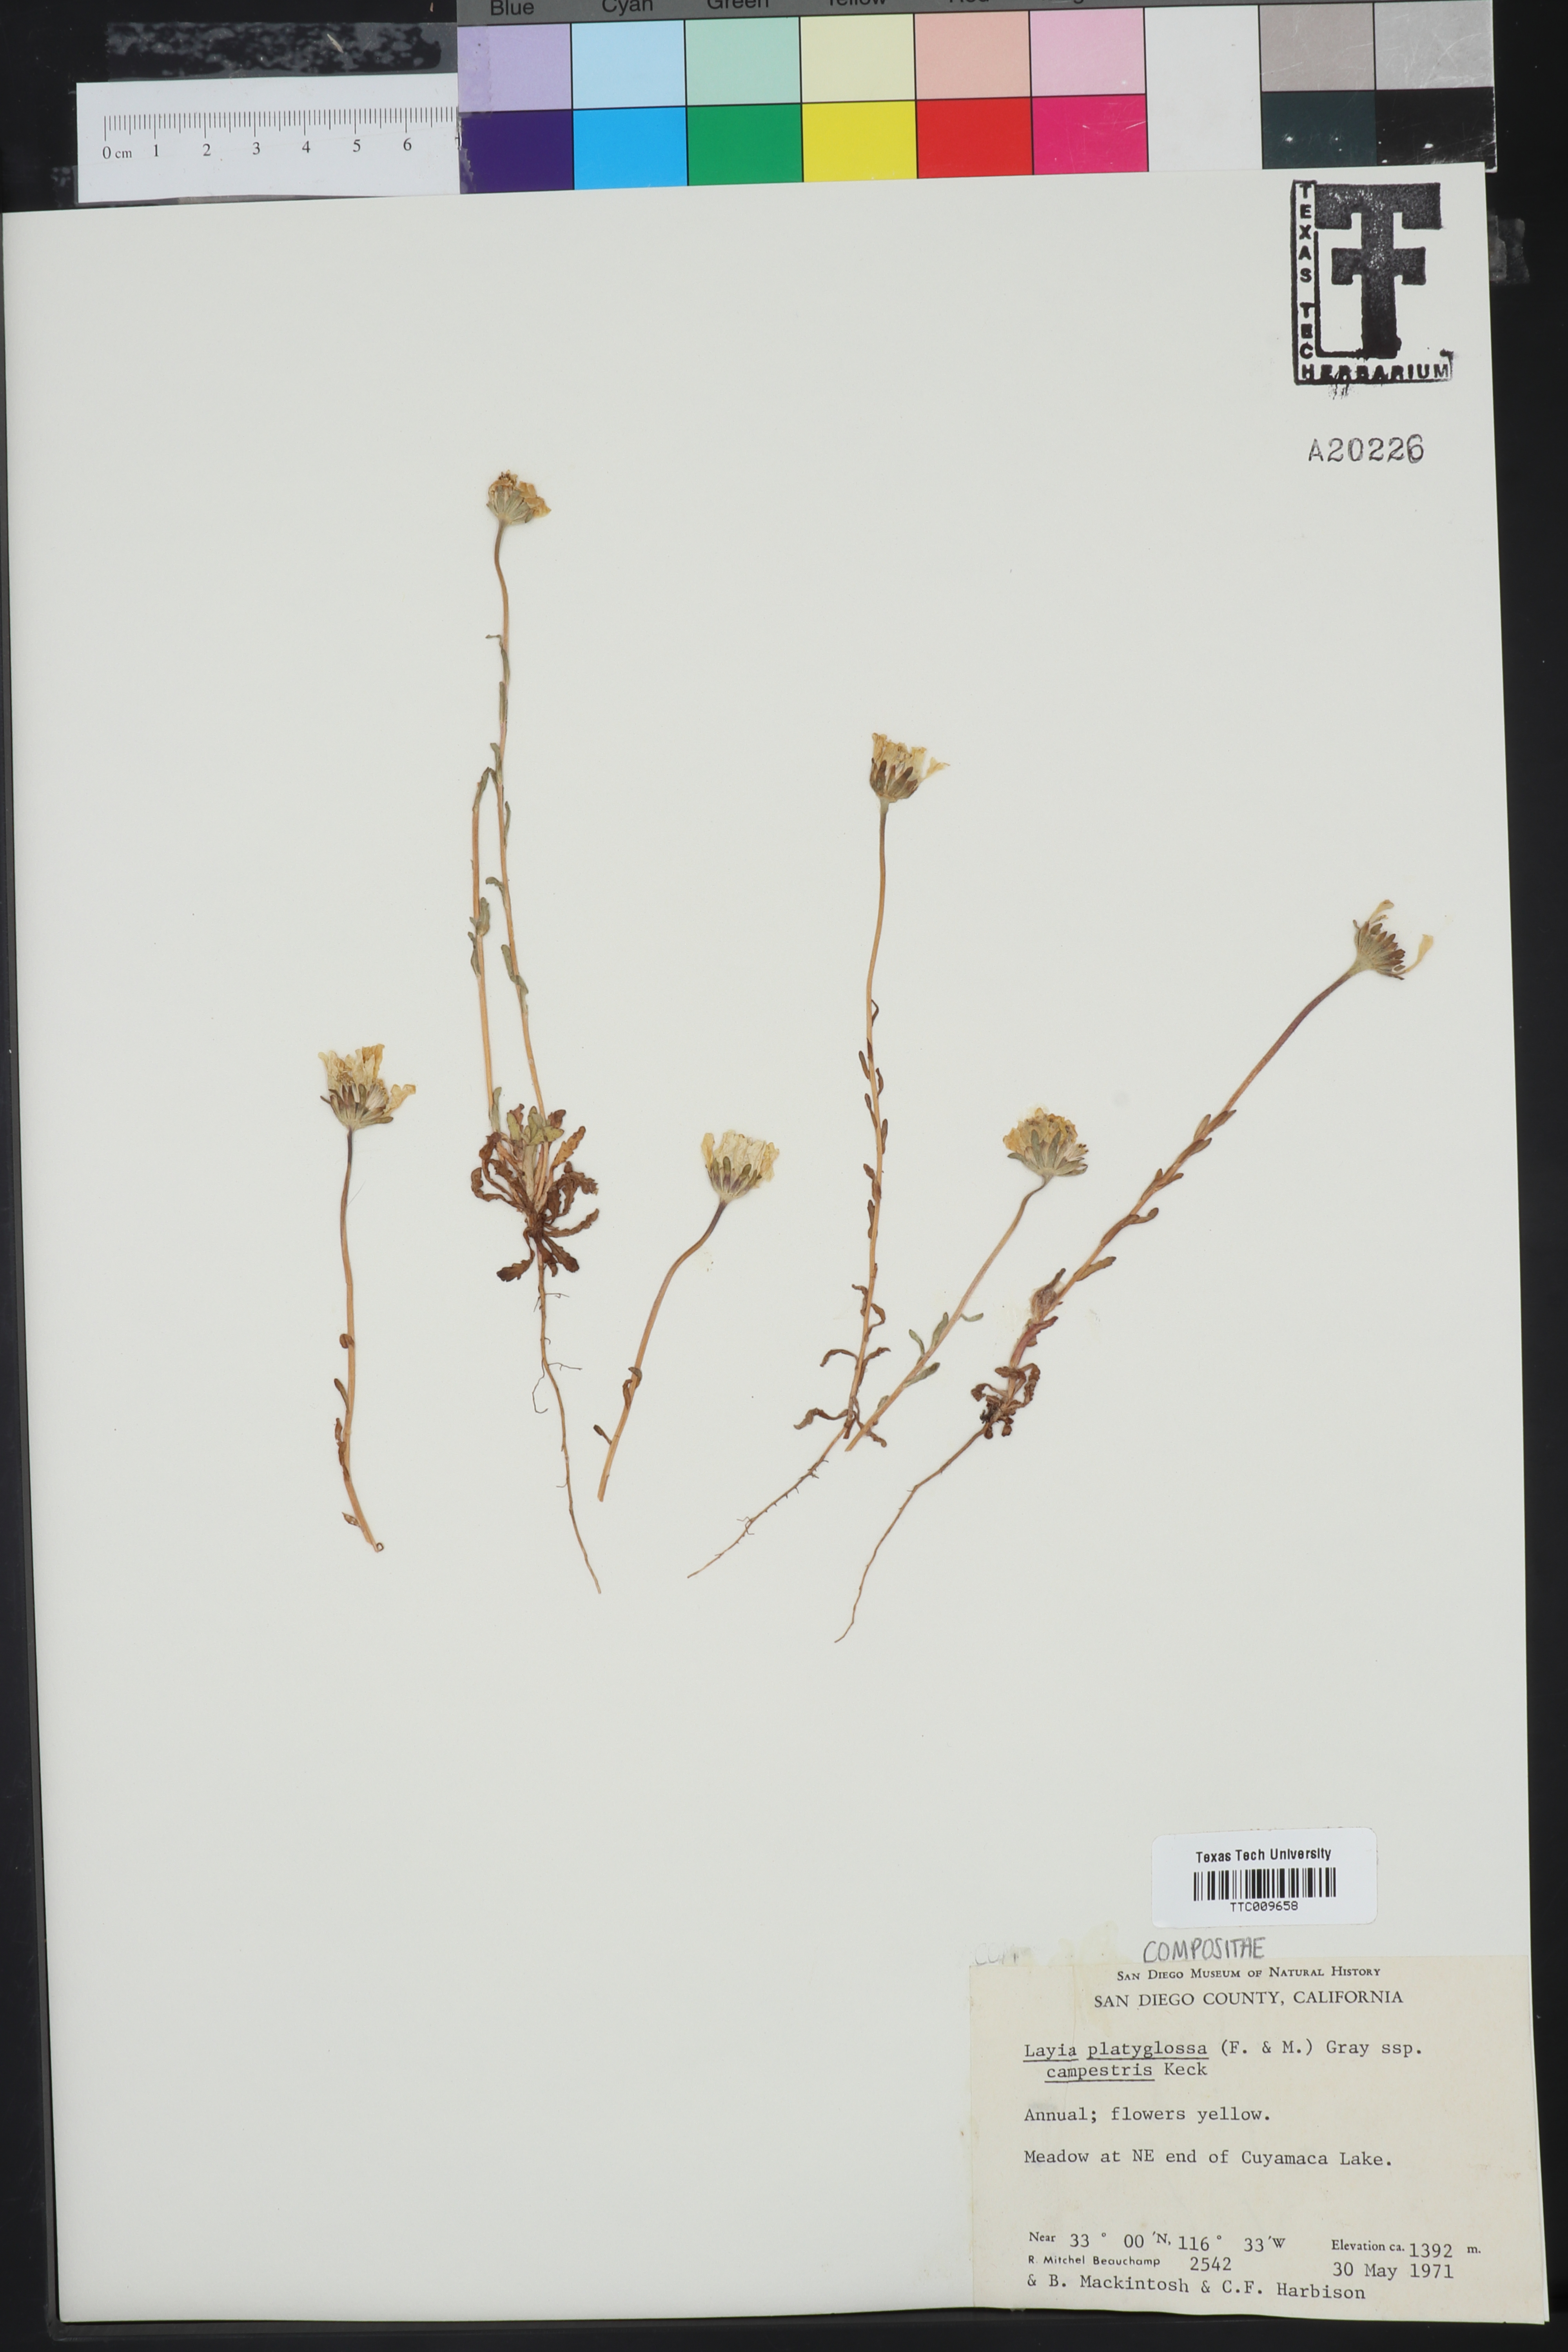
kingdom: Plantae
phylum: Tracheophyta
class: Magnoliopsida
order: Asterales
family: Asteraceae
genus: Layia
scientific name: Layia platyglossa
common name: Tidy-tips
